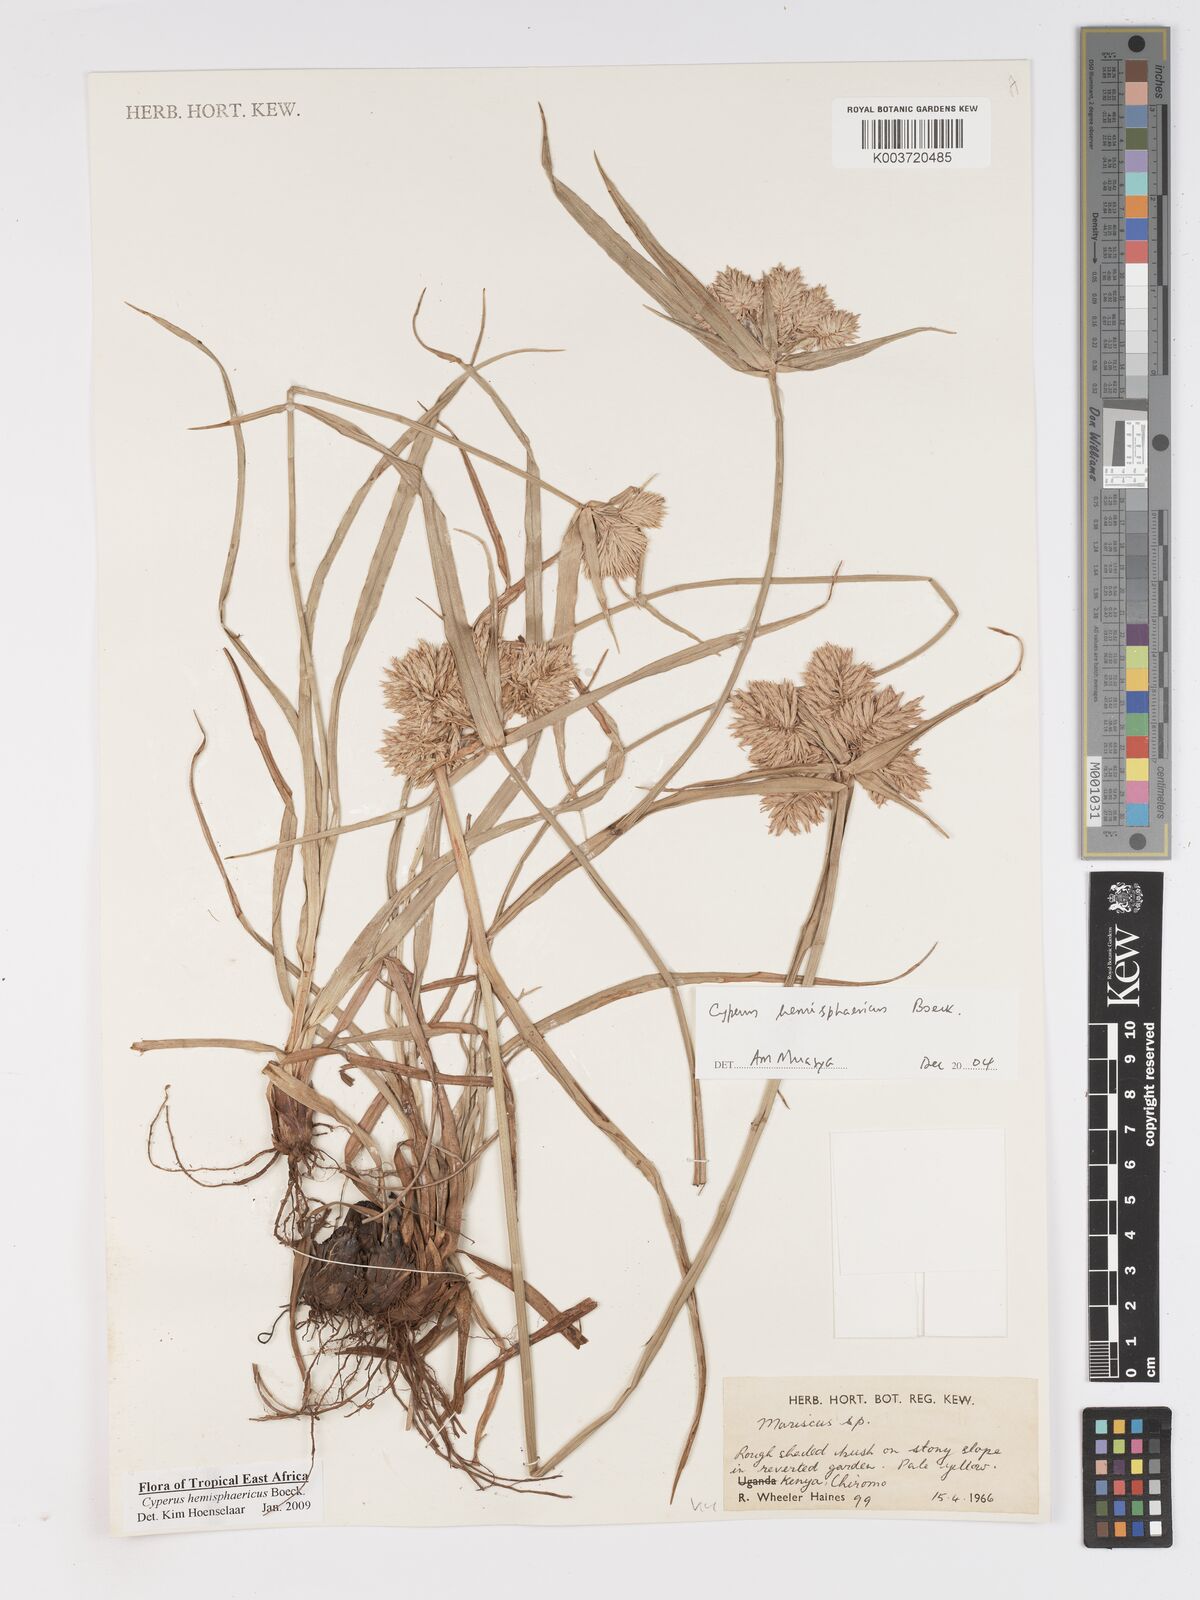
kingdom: Plantae
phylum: Tracheophyta
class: Liliopsida
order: Poales
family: Cyperaceae
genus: Cyperus
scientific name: Cyperus hemisphaericus
